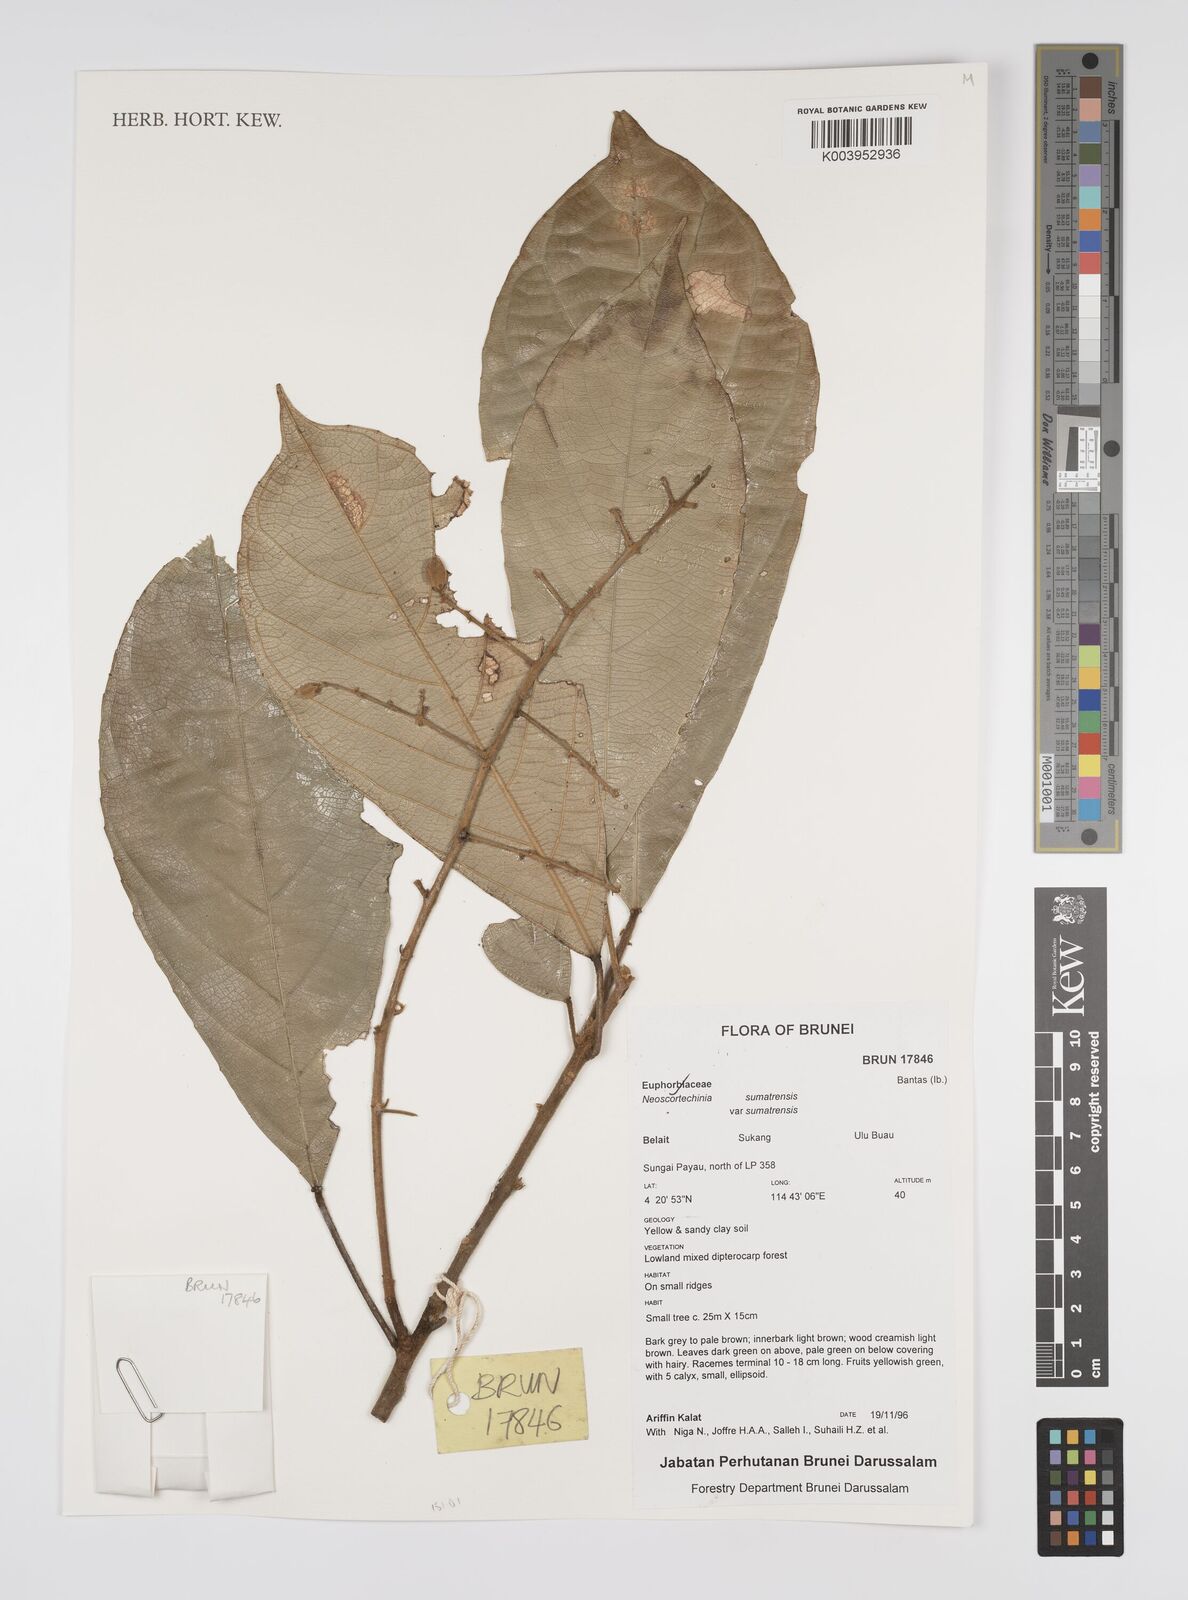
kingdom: Plantae
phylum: Tracheophyta
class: Magnoliopsida
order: Malpighiales
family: Euphorbiaceae
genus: Neoscortechinia
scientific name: Neoscortechinia sumatrensis
